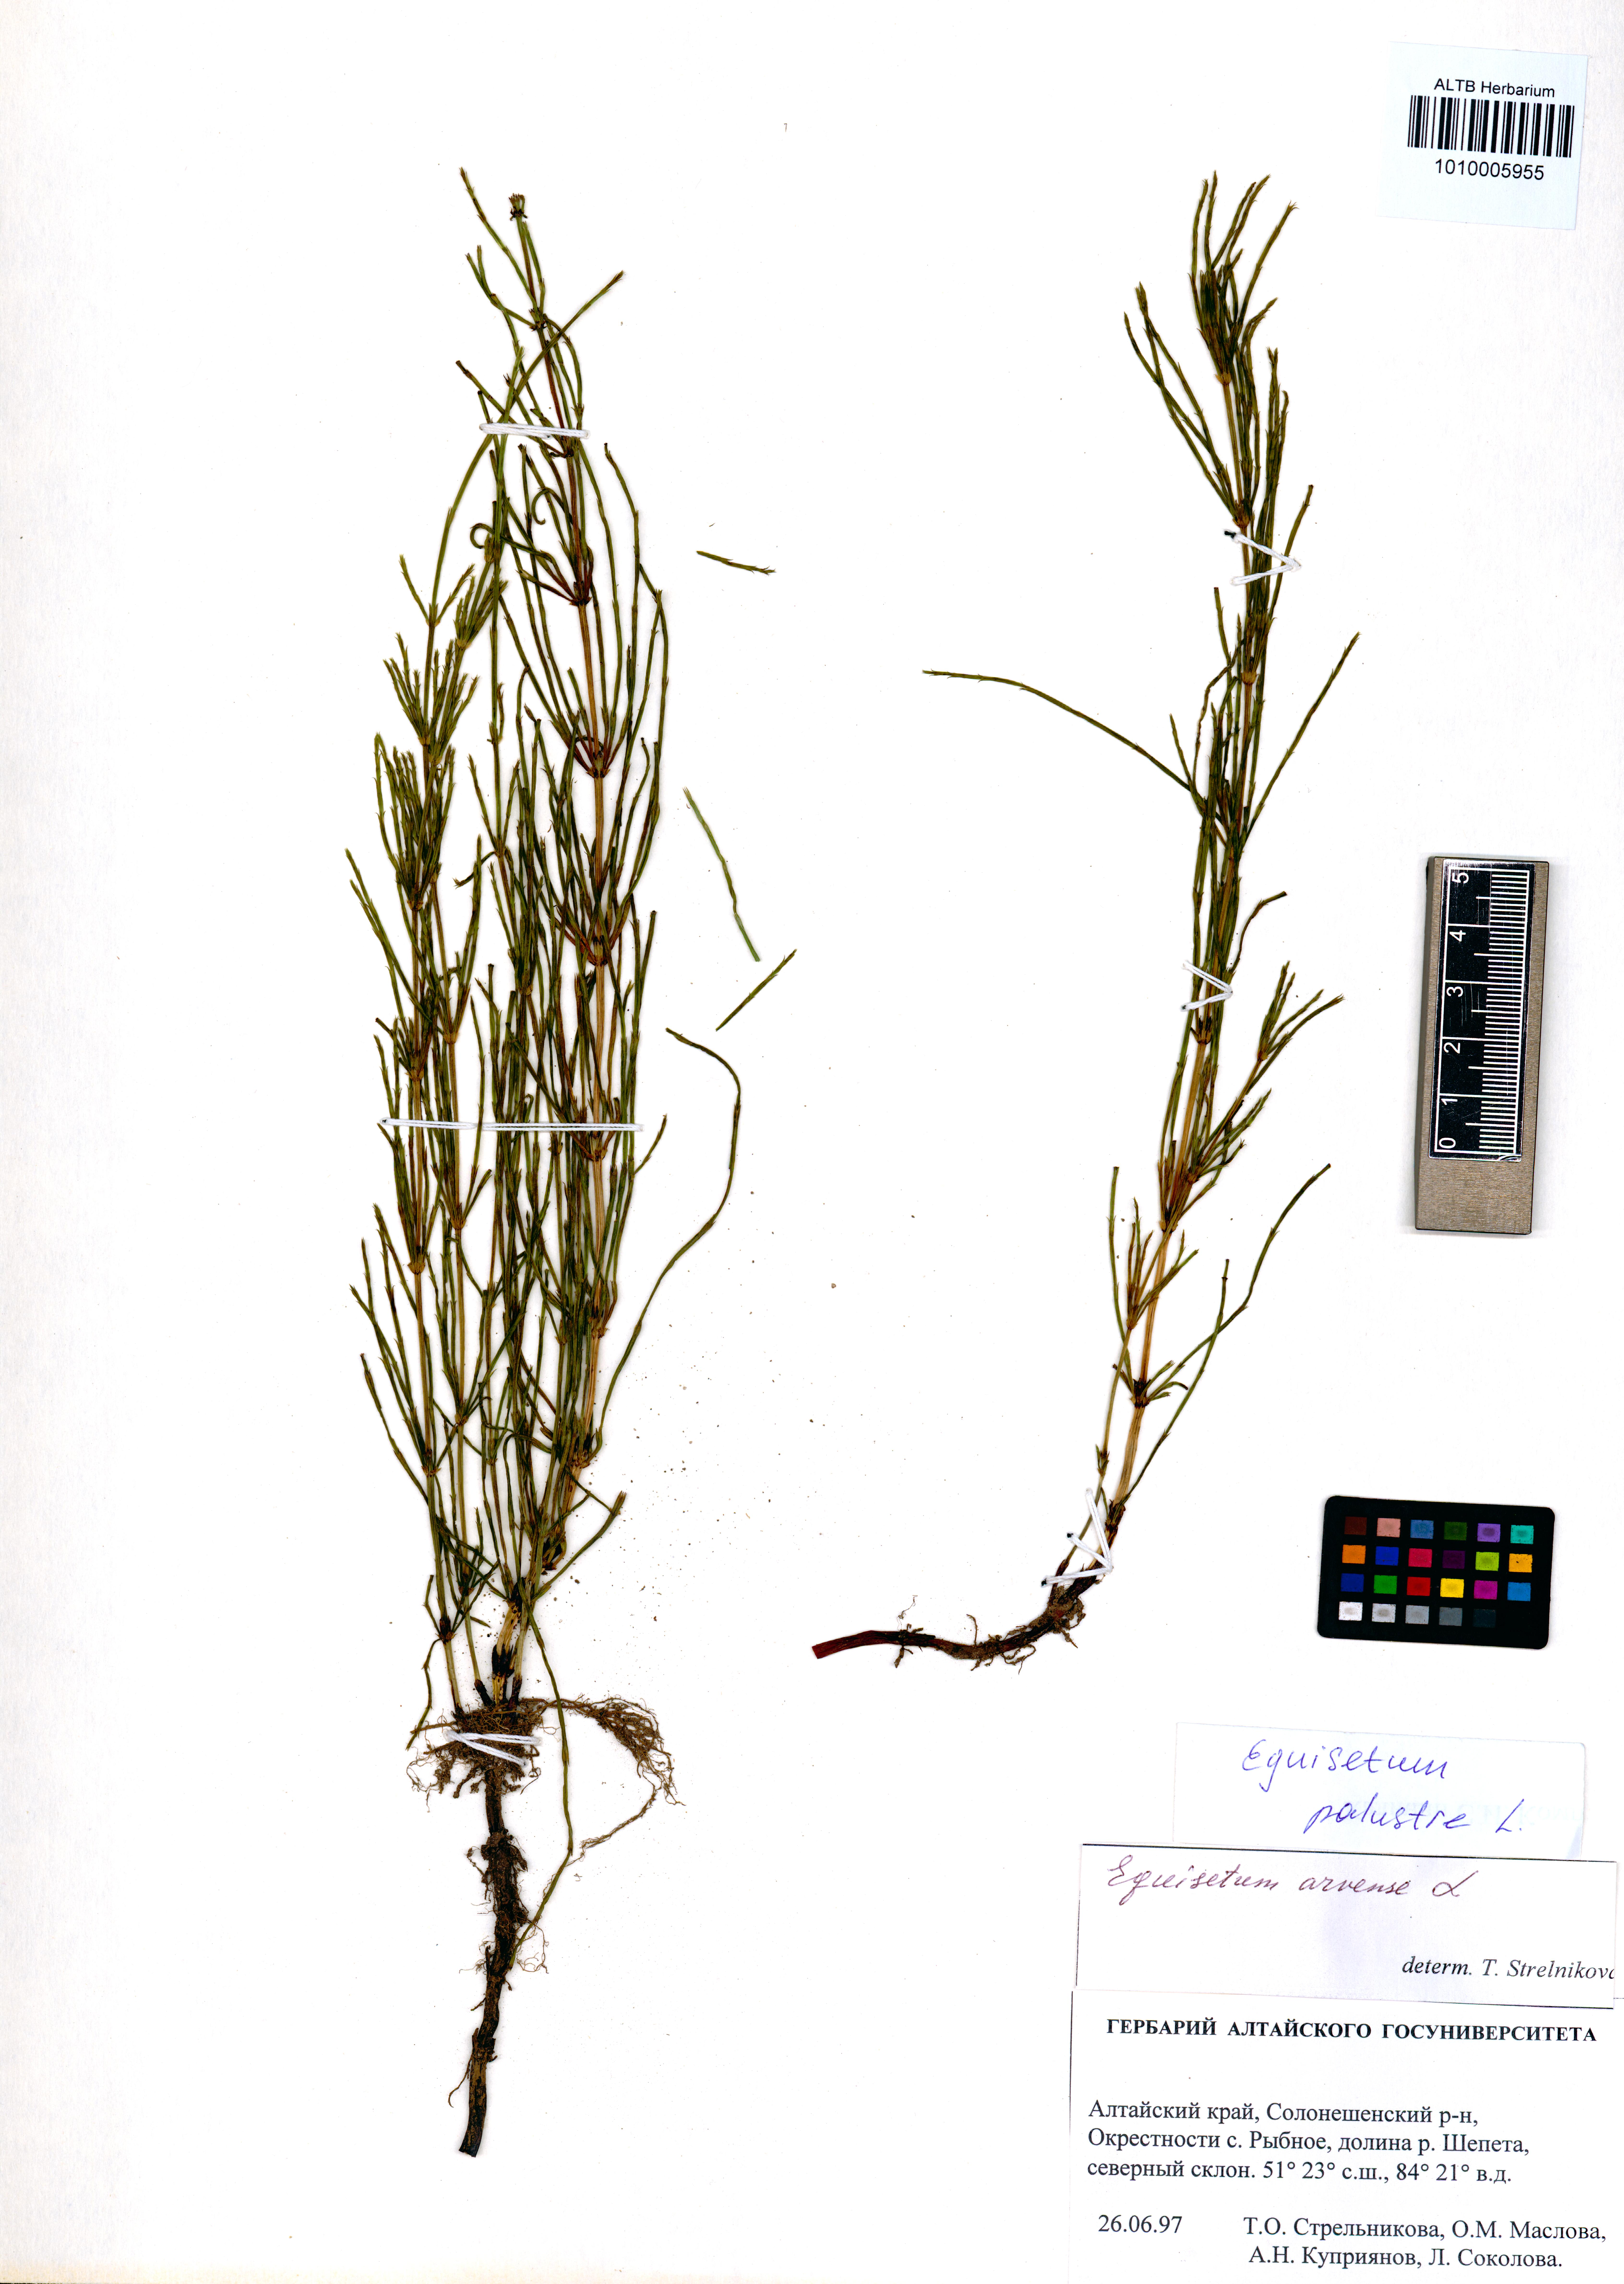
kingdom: Plantae
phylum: Tracheophyta
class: Polypodiopsida
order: Equisetales
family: Equisetaceae
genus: Equisetum
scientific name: Equisetum palustre
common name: Marsh horsetail
